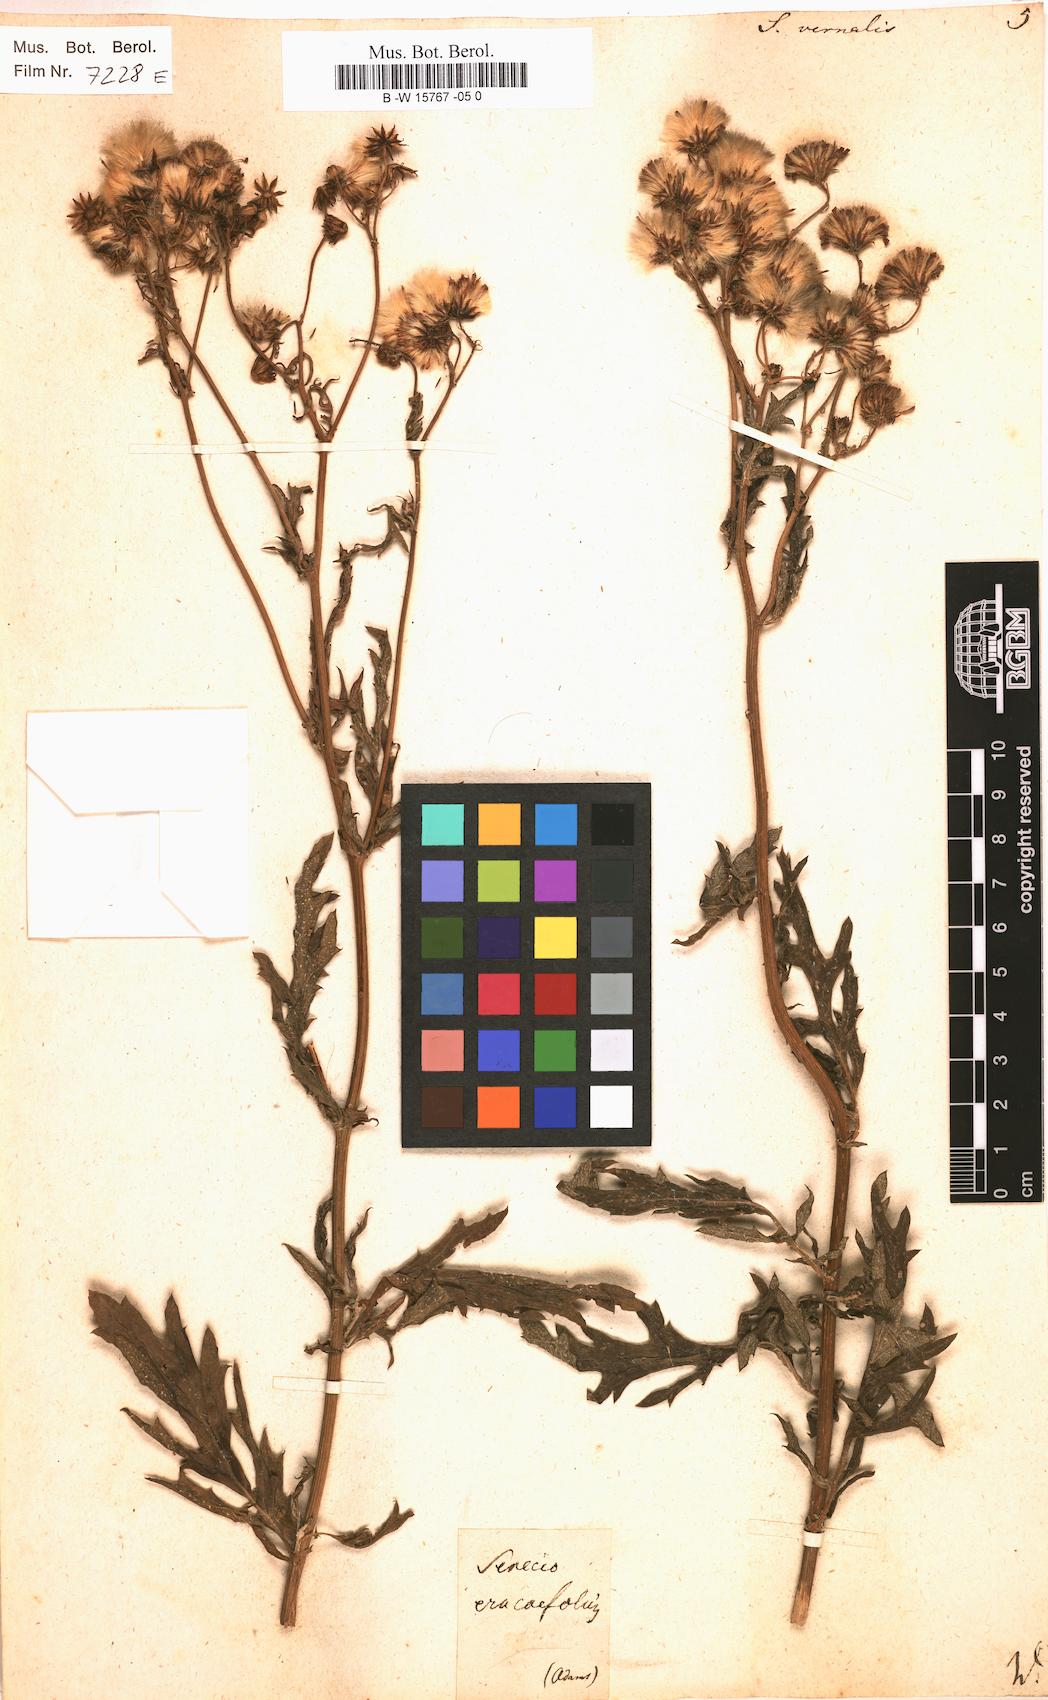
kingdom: Plantae
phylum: Tracheophyta
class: Magnoliopsida
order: Asterales
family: Asteraceae
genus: Senecio
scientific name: Senecio vernalis
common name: Eastern groundsel
